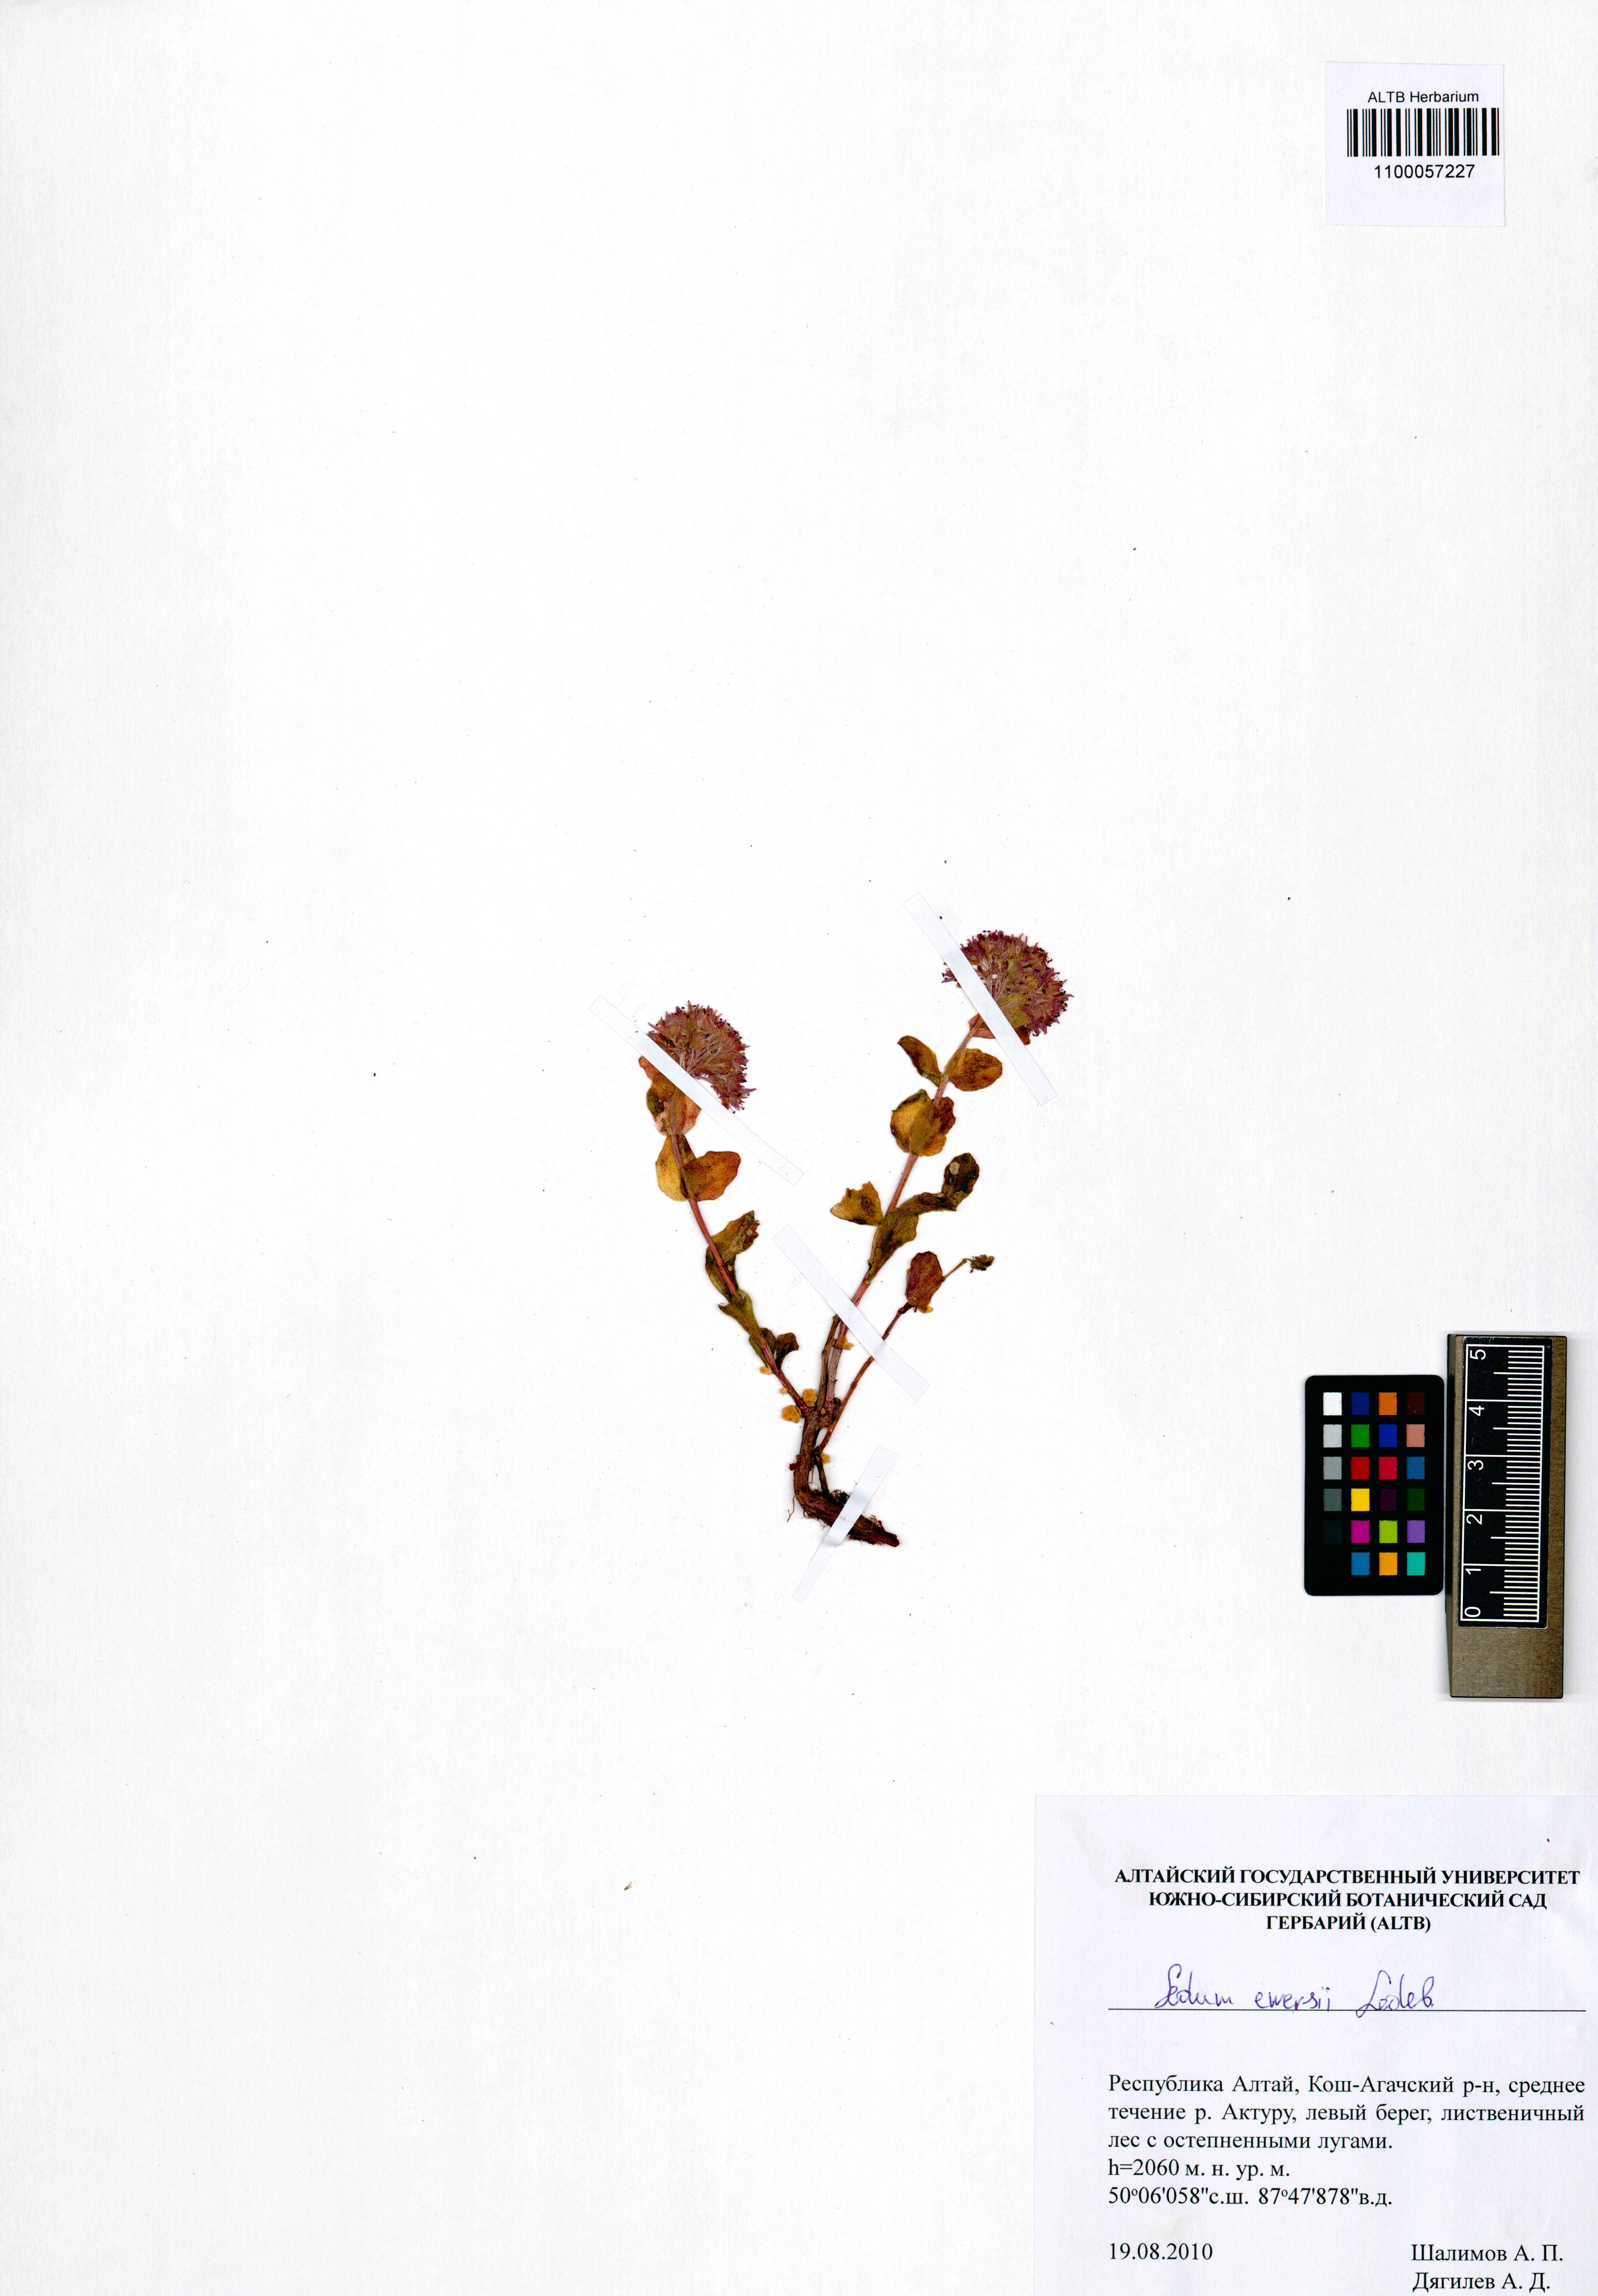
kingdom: Plantae
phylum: Tracheophyta
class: Magnoliopsida
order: Saxifragales
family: Crassulaceae
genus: Hylotelephium
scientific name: Hylotelephium ewersii
